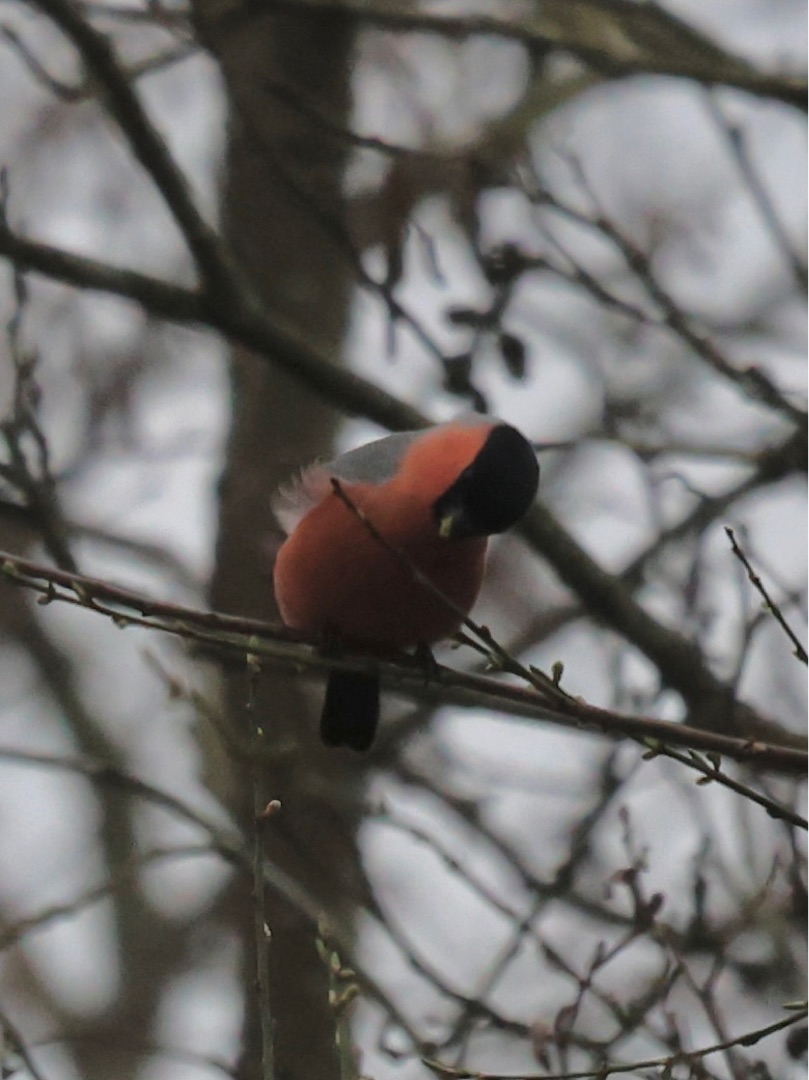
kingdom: Animalia
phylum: Chordata
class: Aves
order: Passeriformes
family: Fringillidae
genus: Pyrrhula
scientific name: Pyrrhula pyrrhula
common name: Dompap
